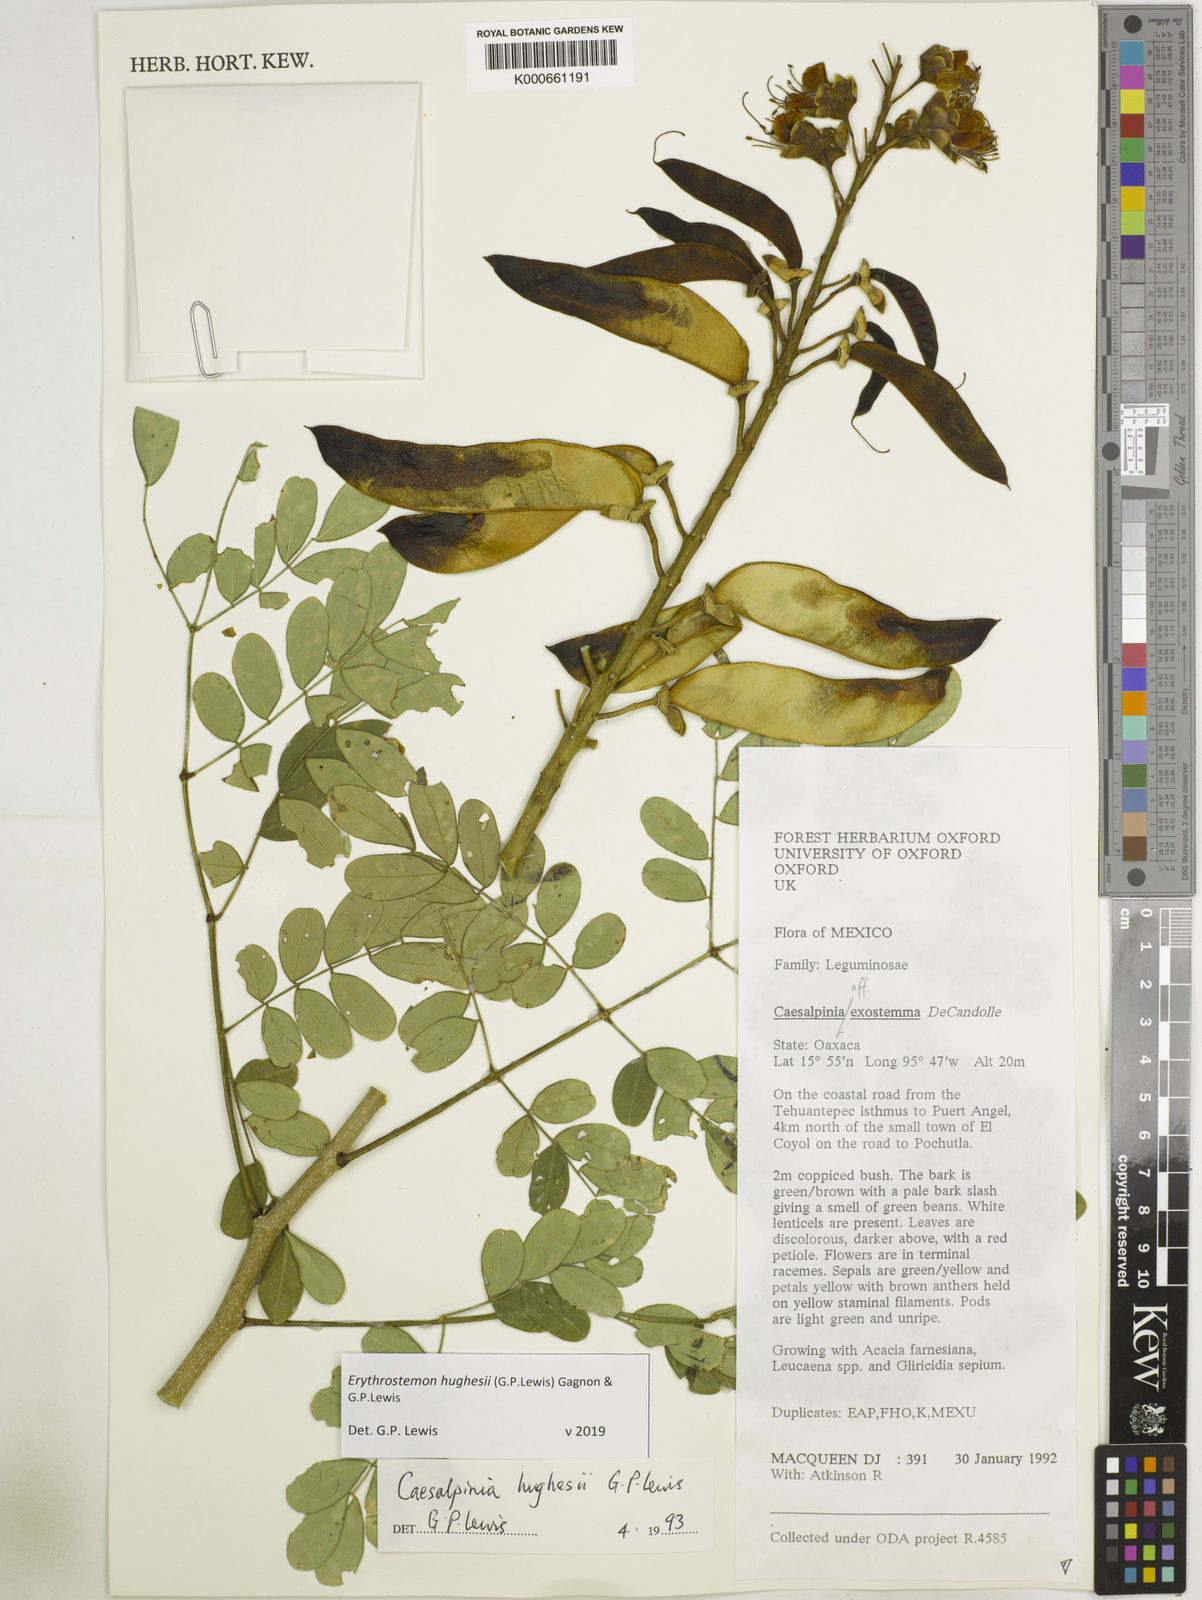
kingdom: Plantae
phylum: Tracheophyta
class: Magnoliopsida
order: Fabales
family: Fabaceae
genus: Erythrostemon
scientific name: Erythrostemon hughesii
